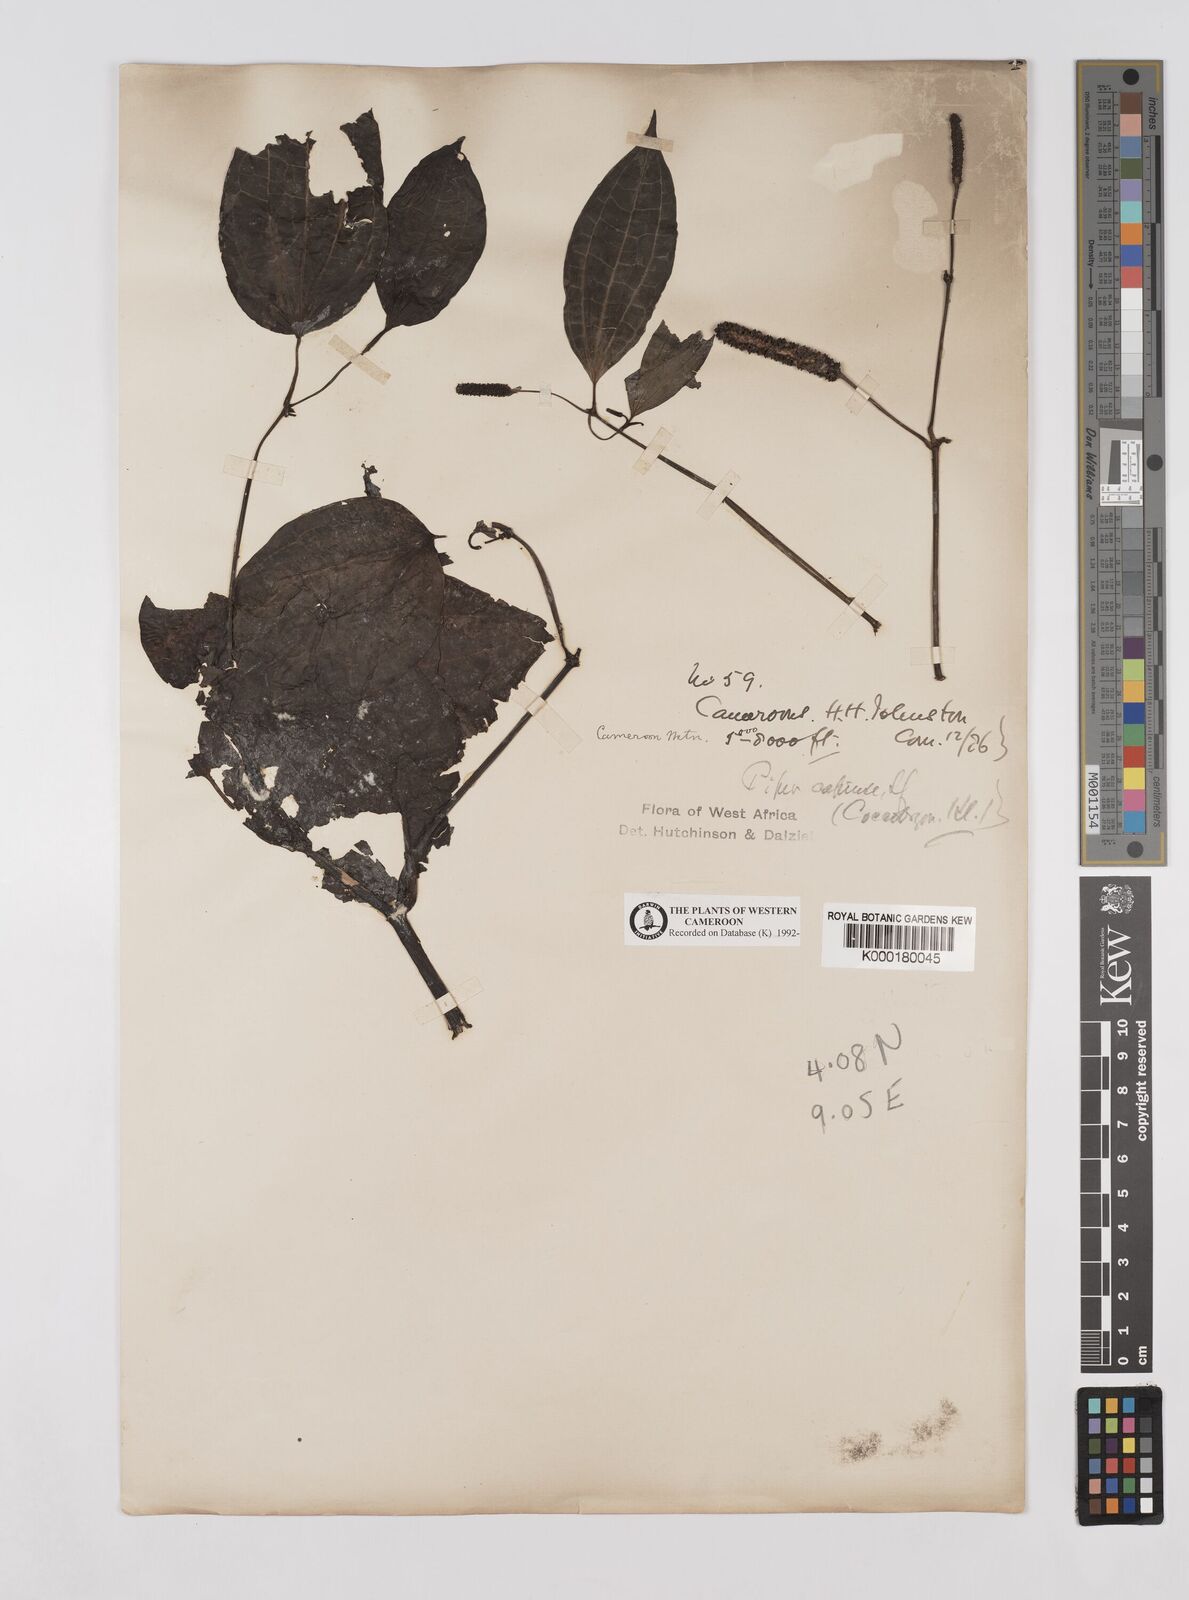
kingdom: Plantae
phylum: Tracheophyta
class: Magnoliopsida
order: Piperales
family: Piperaceae
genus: Piper
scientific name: Piper capense
